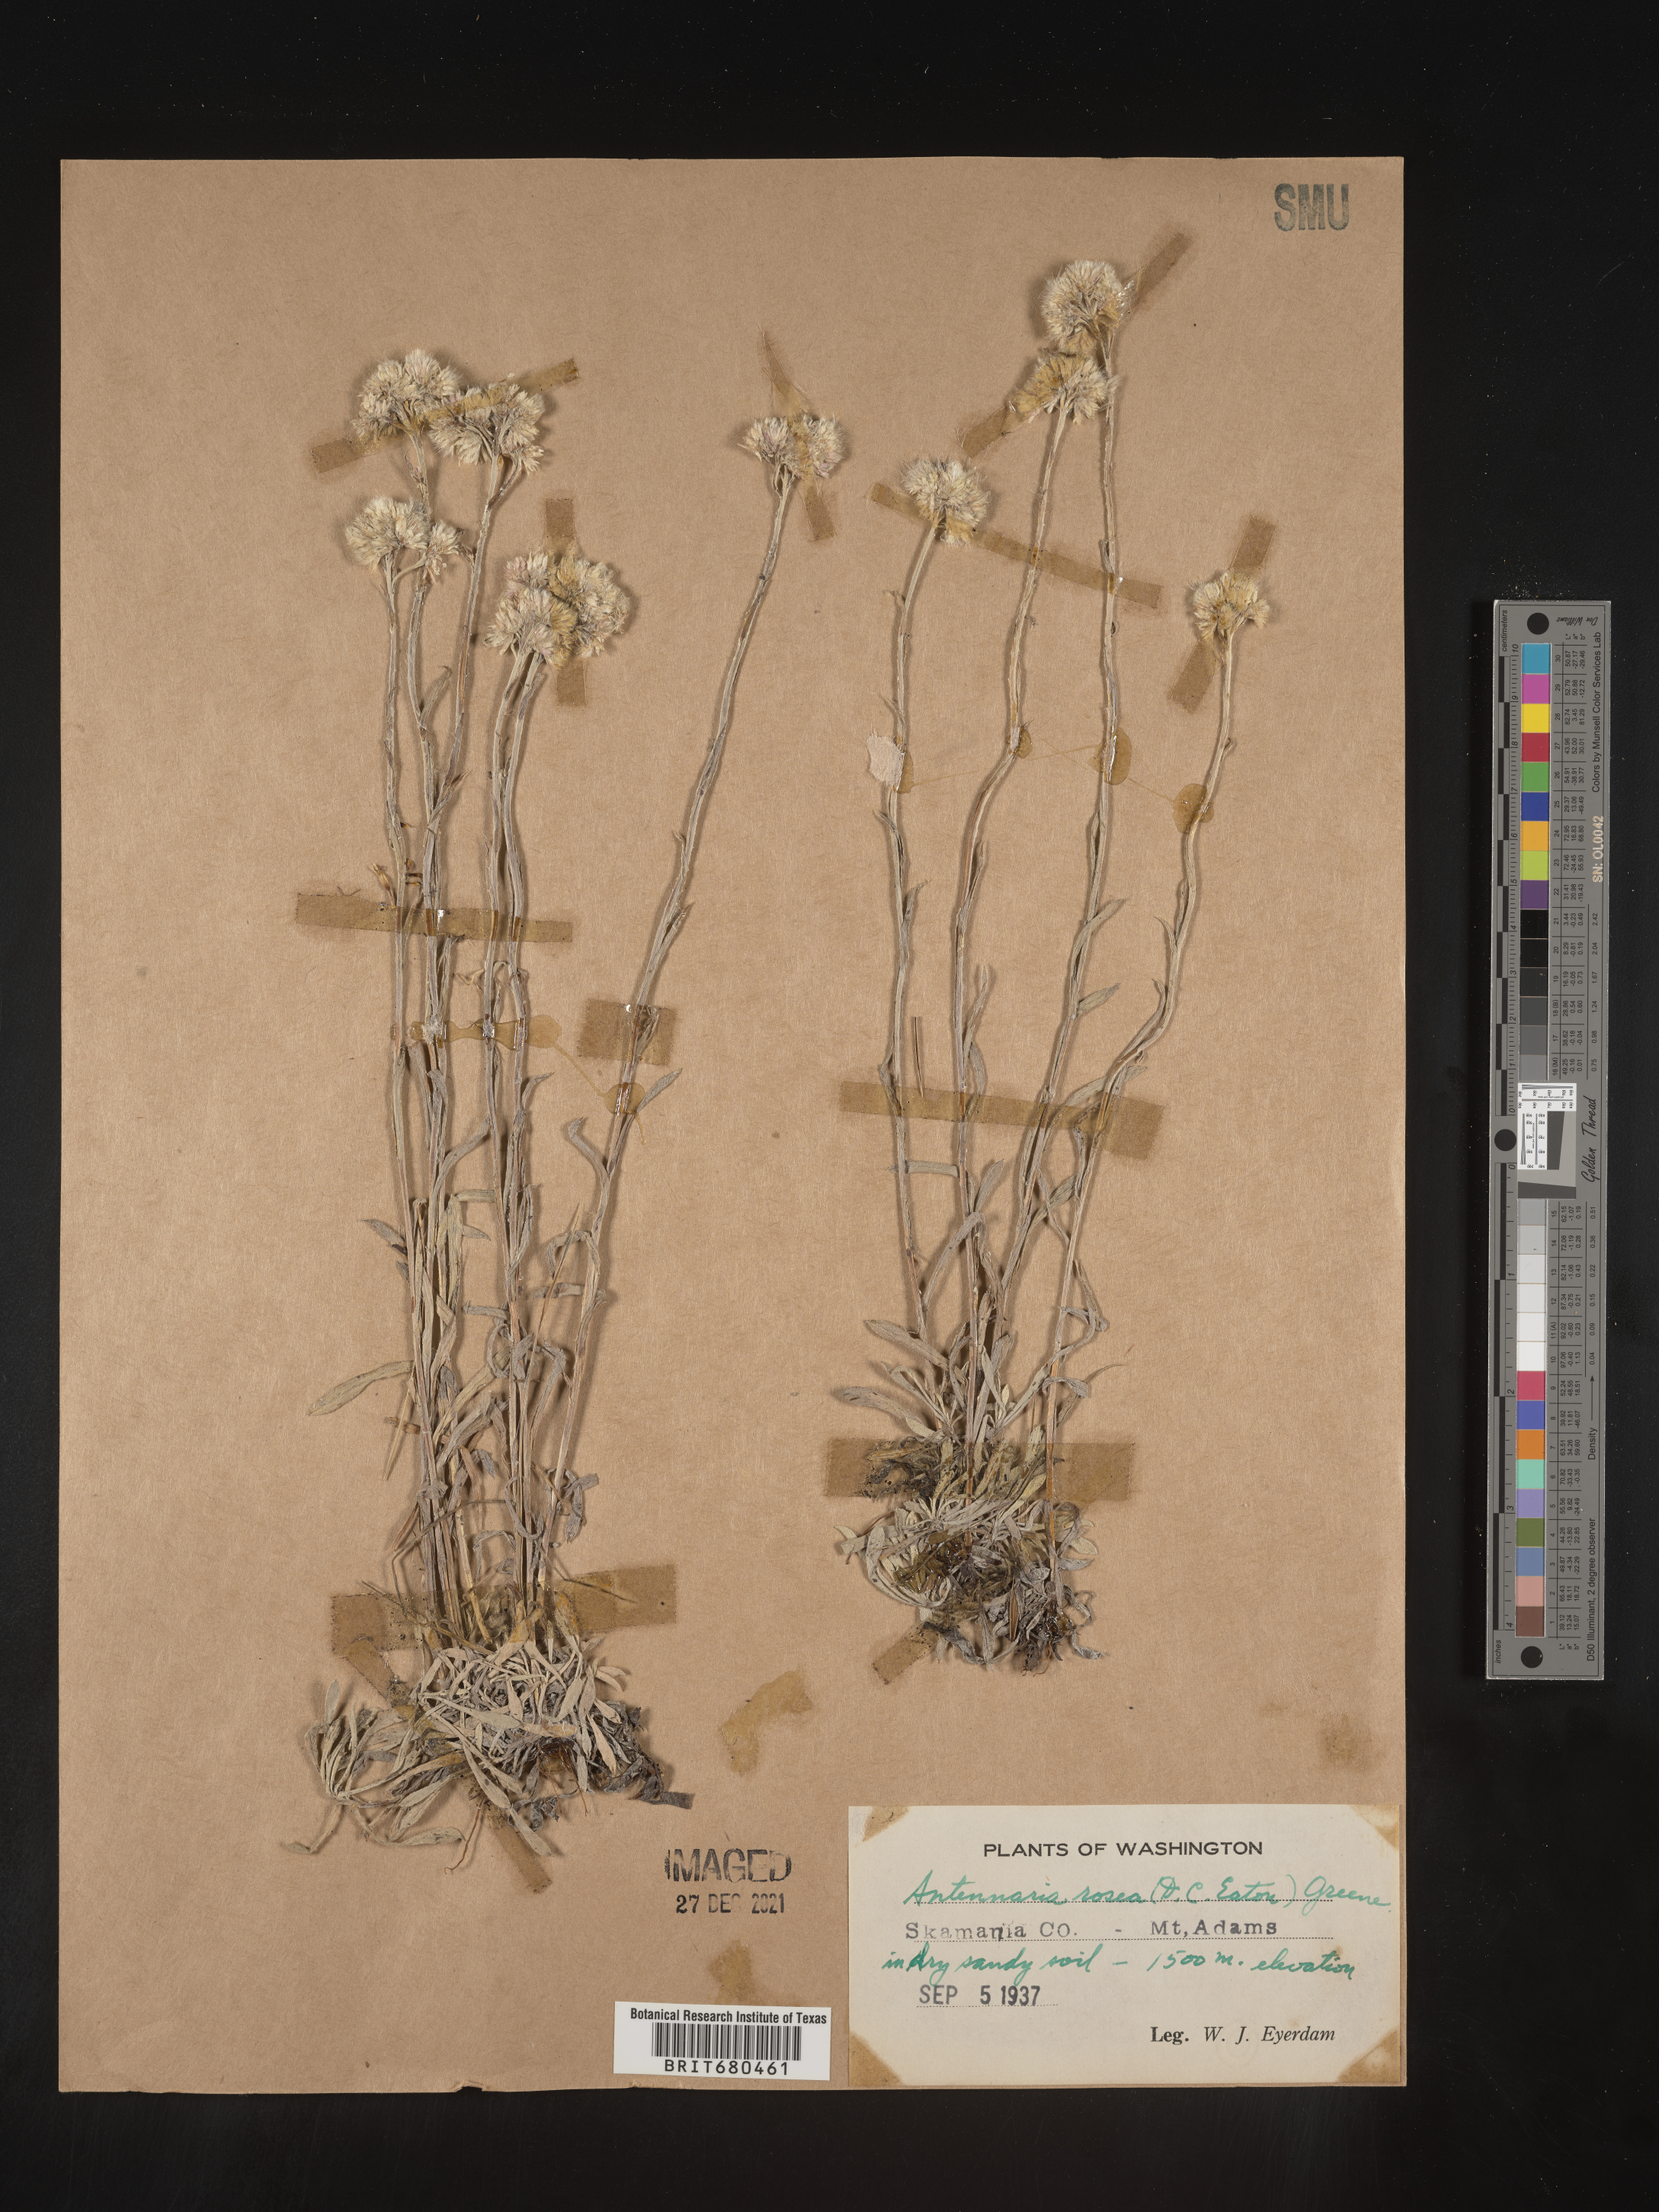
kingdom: Plantae
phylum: Tracheophyta
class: Magnoliopsida
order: Asterales
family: Asteraceae
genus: Antennaria
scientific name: Antennaria rosea
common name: Rosy pussytoes
